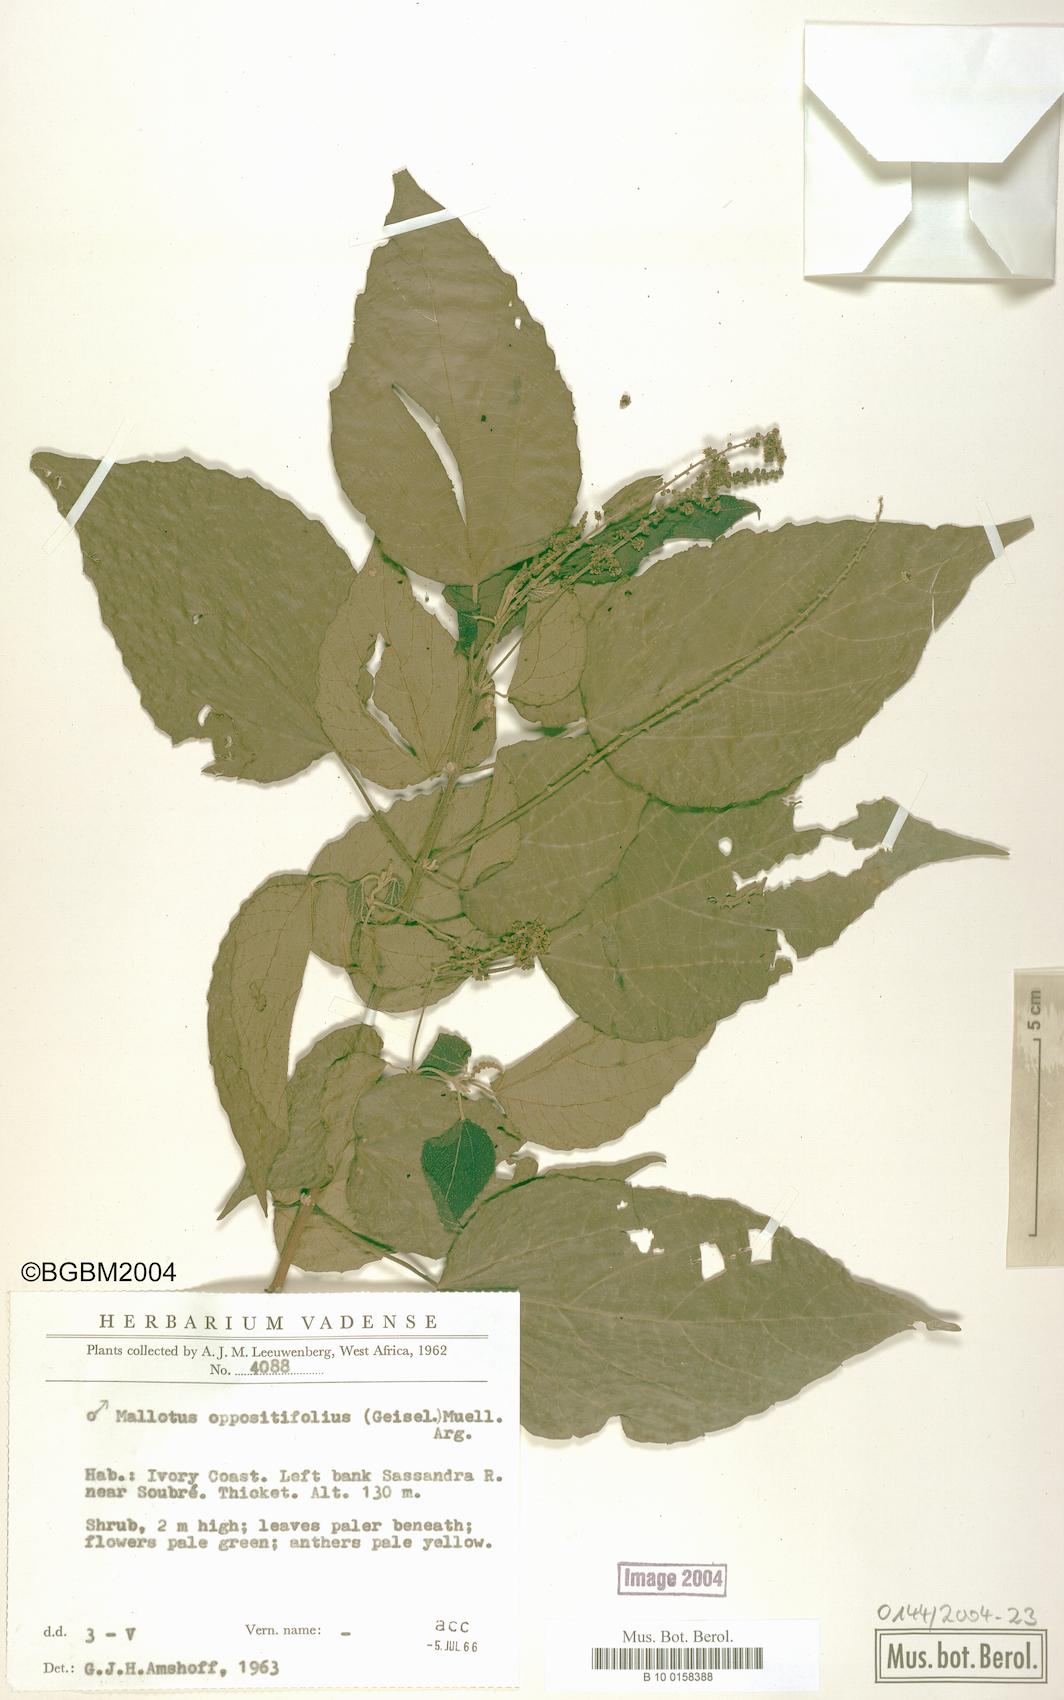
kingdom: Plantae
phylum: Tracheophyta
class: Magnoliopsida
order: Malpighiales
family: Euphorbiaceae
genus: Mallotus
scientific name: Mallotus oppositifolius
